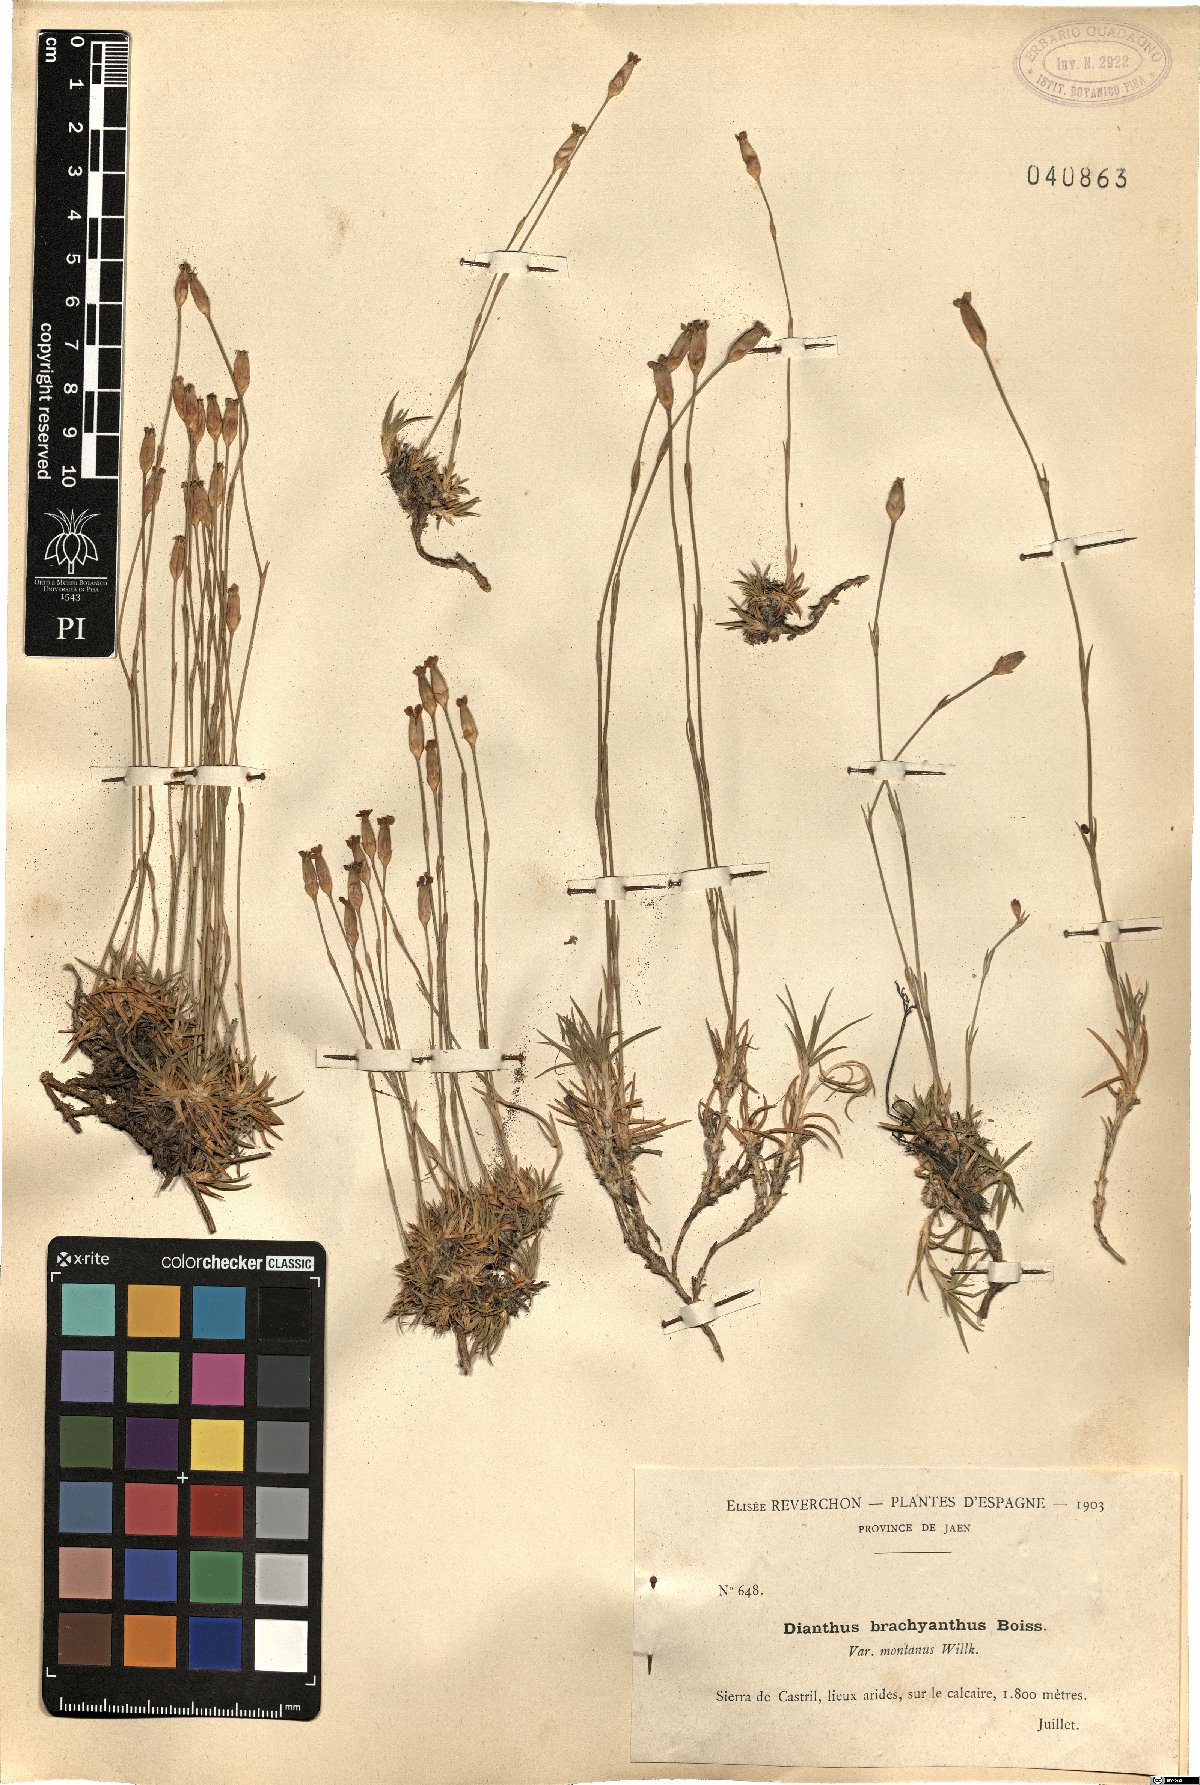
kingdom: Plantae
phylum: Tracheophyta
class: Magnoliopsida
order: Caryophyllales
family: Caryophyllaceae
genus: Dianthus
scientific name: Dianthus pungens
